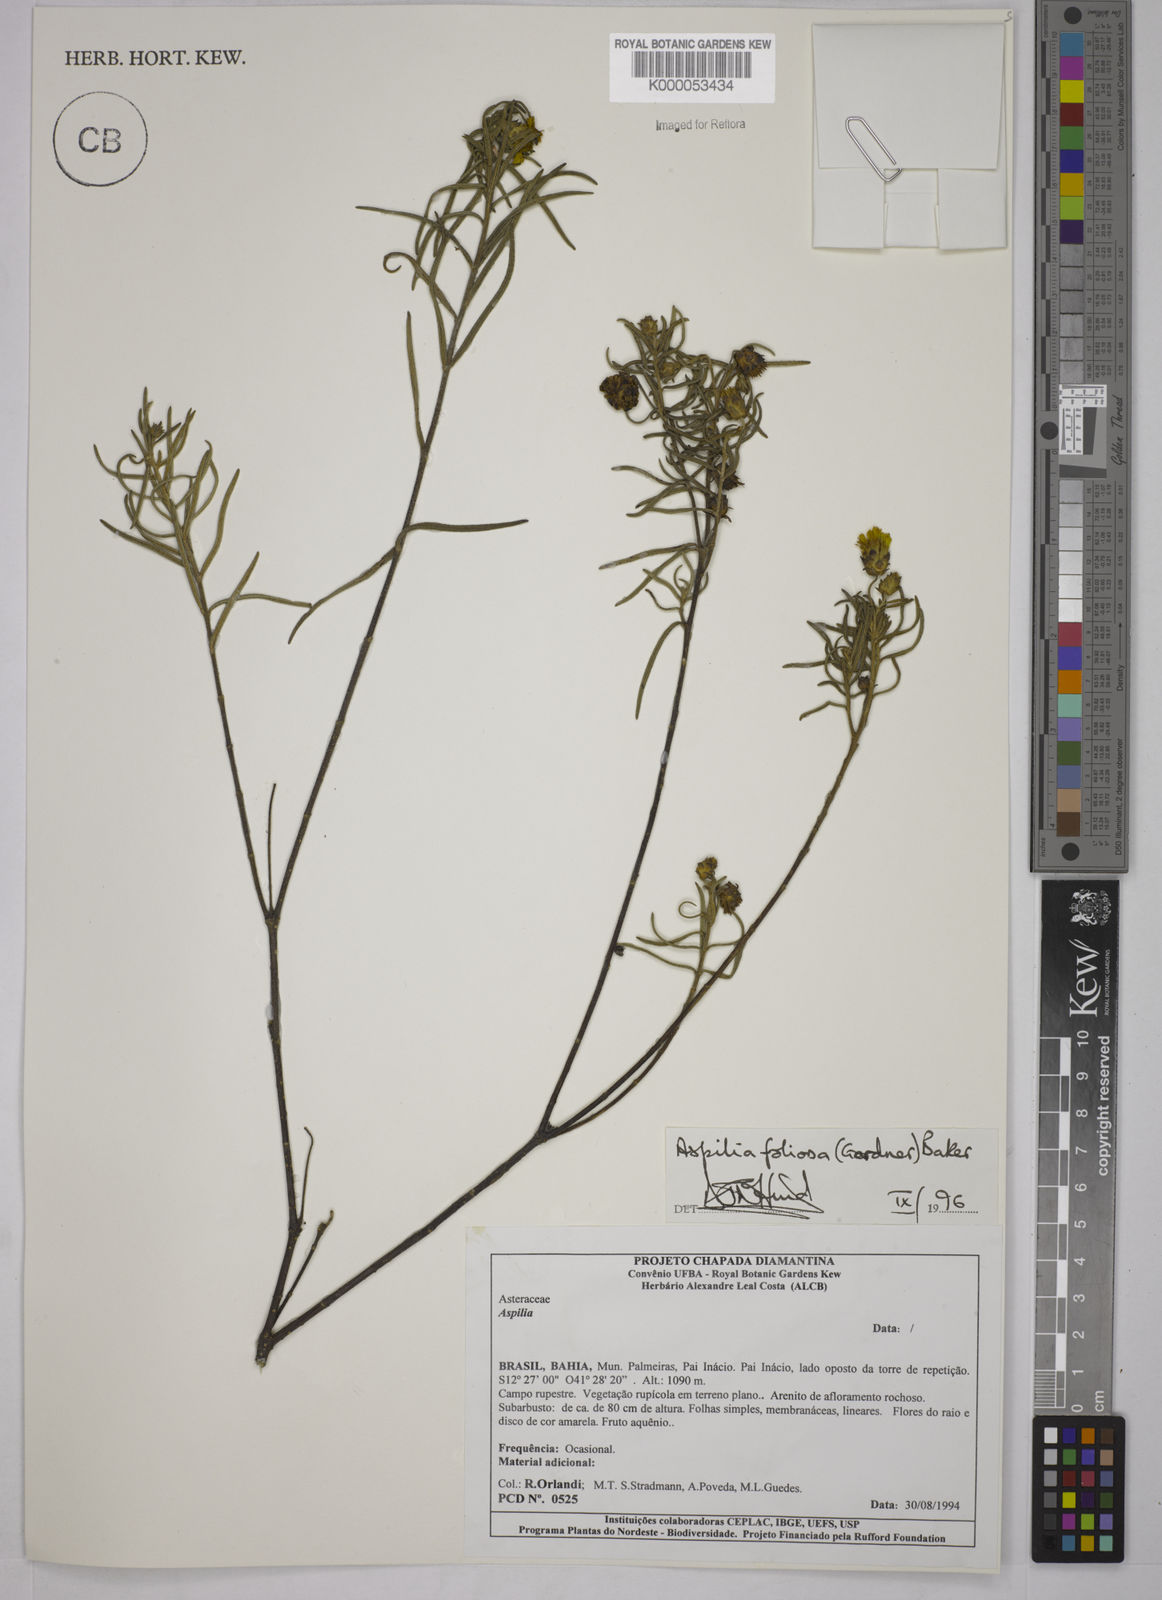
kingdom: Plantae
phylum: Tracheophyta
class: Magnoliopsida
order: Asterales
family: Asteraceae
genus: Aspilia
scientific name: Aspilia
